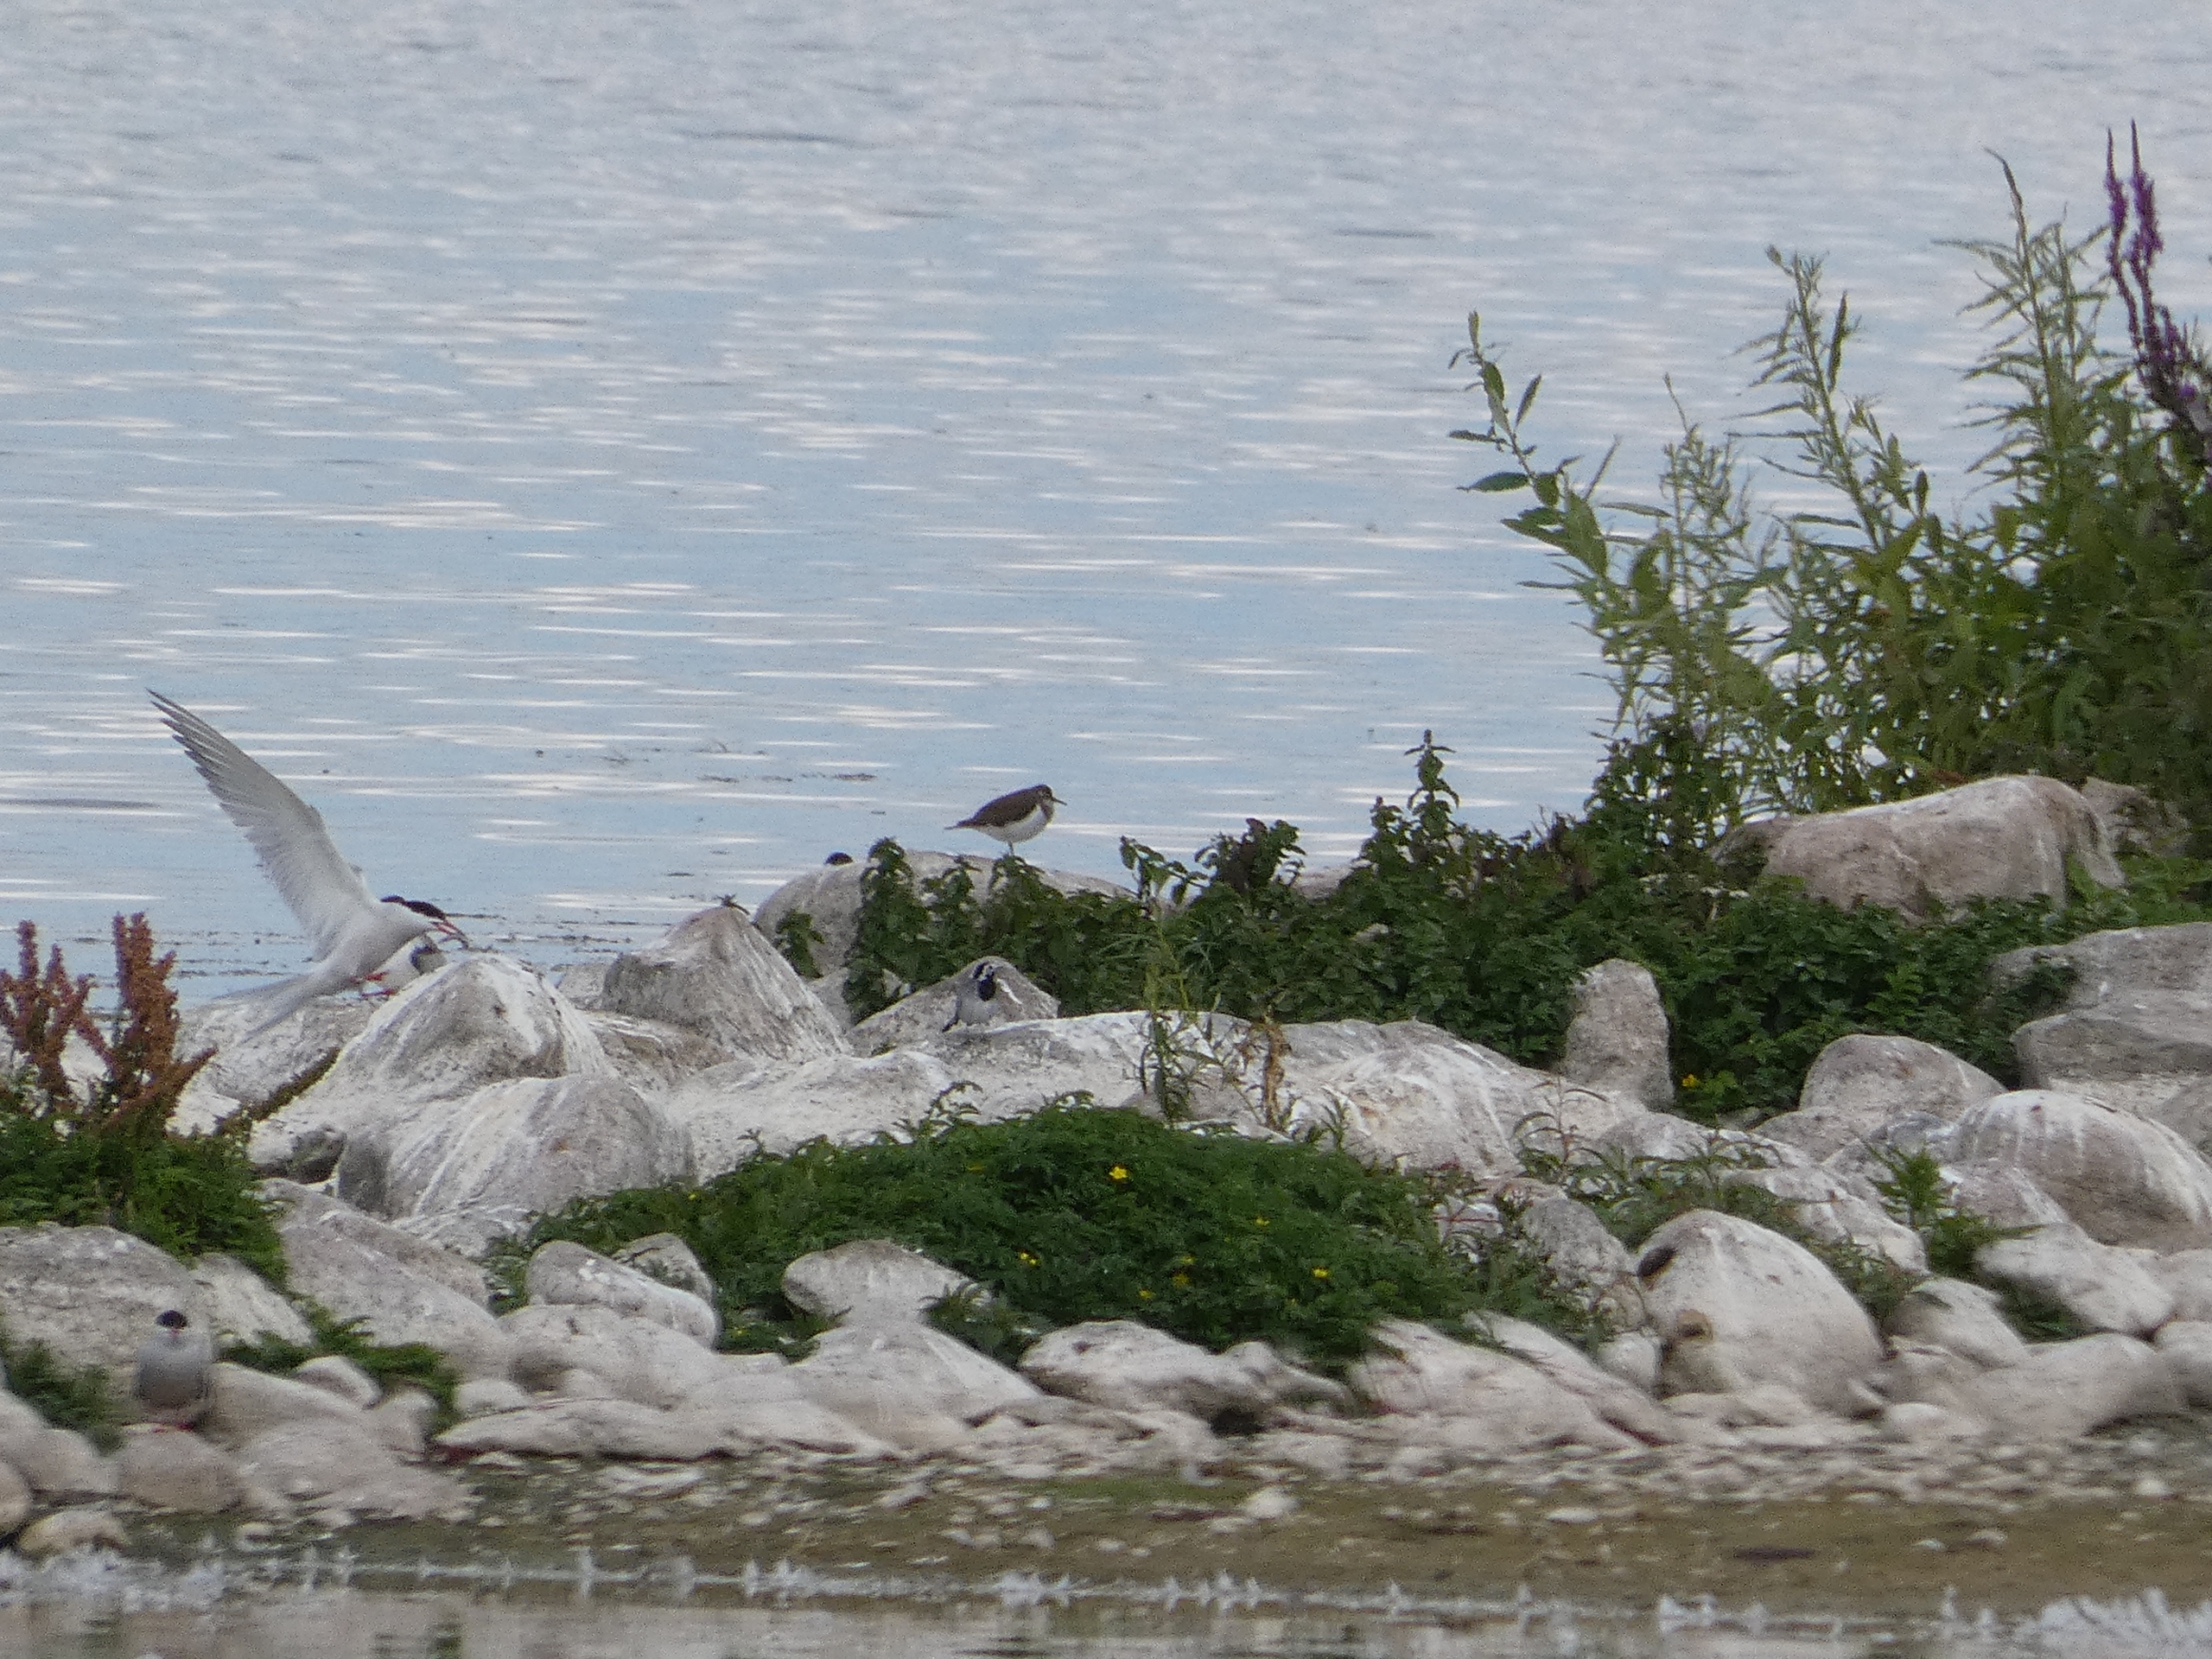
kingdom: Animalia
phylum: Chordata
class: Aves
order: Charadriiformes
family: Scolopacidae
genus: Actitis
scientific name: Actitis hypoleucos
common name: Mudderklire
